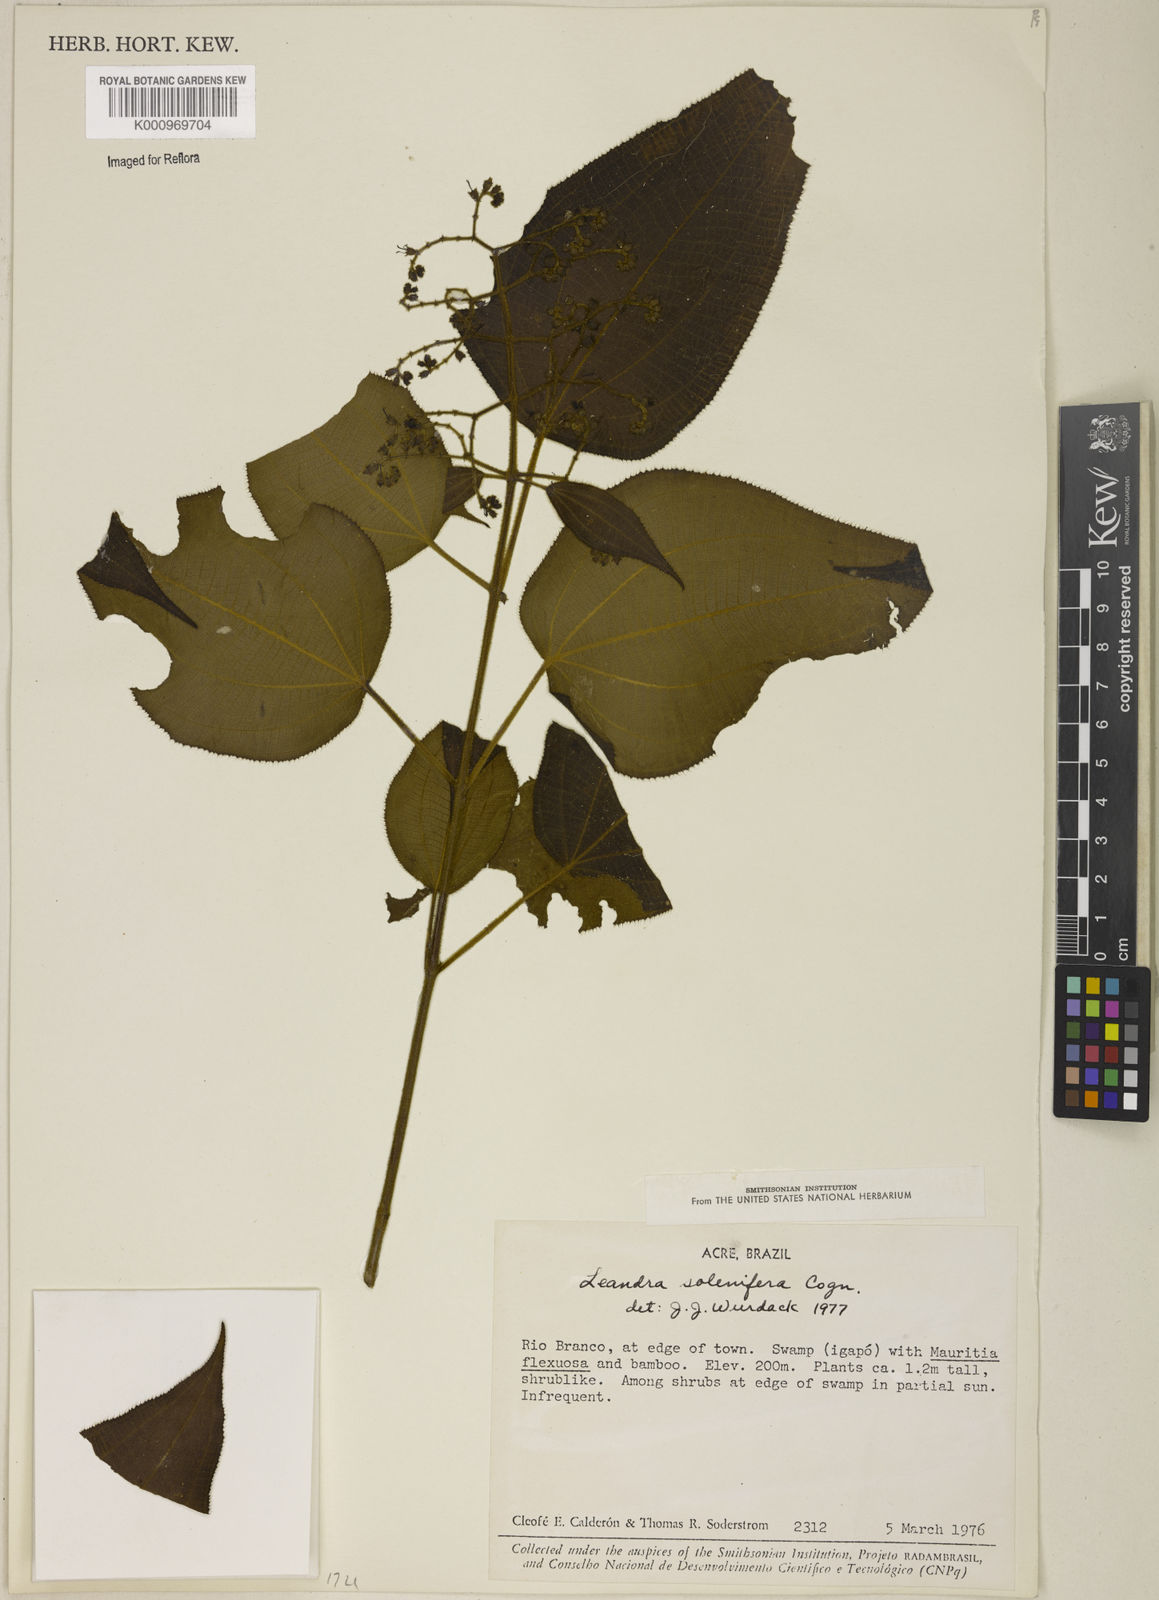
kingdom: Plantae
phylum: Tracheophyta
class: Magnoliopsida
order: Myrtales
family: Melastomataceae
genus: Miconia
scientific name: Miconia solenifera
